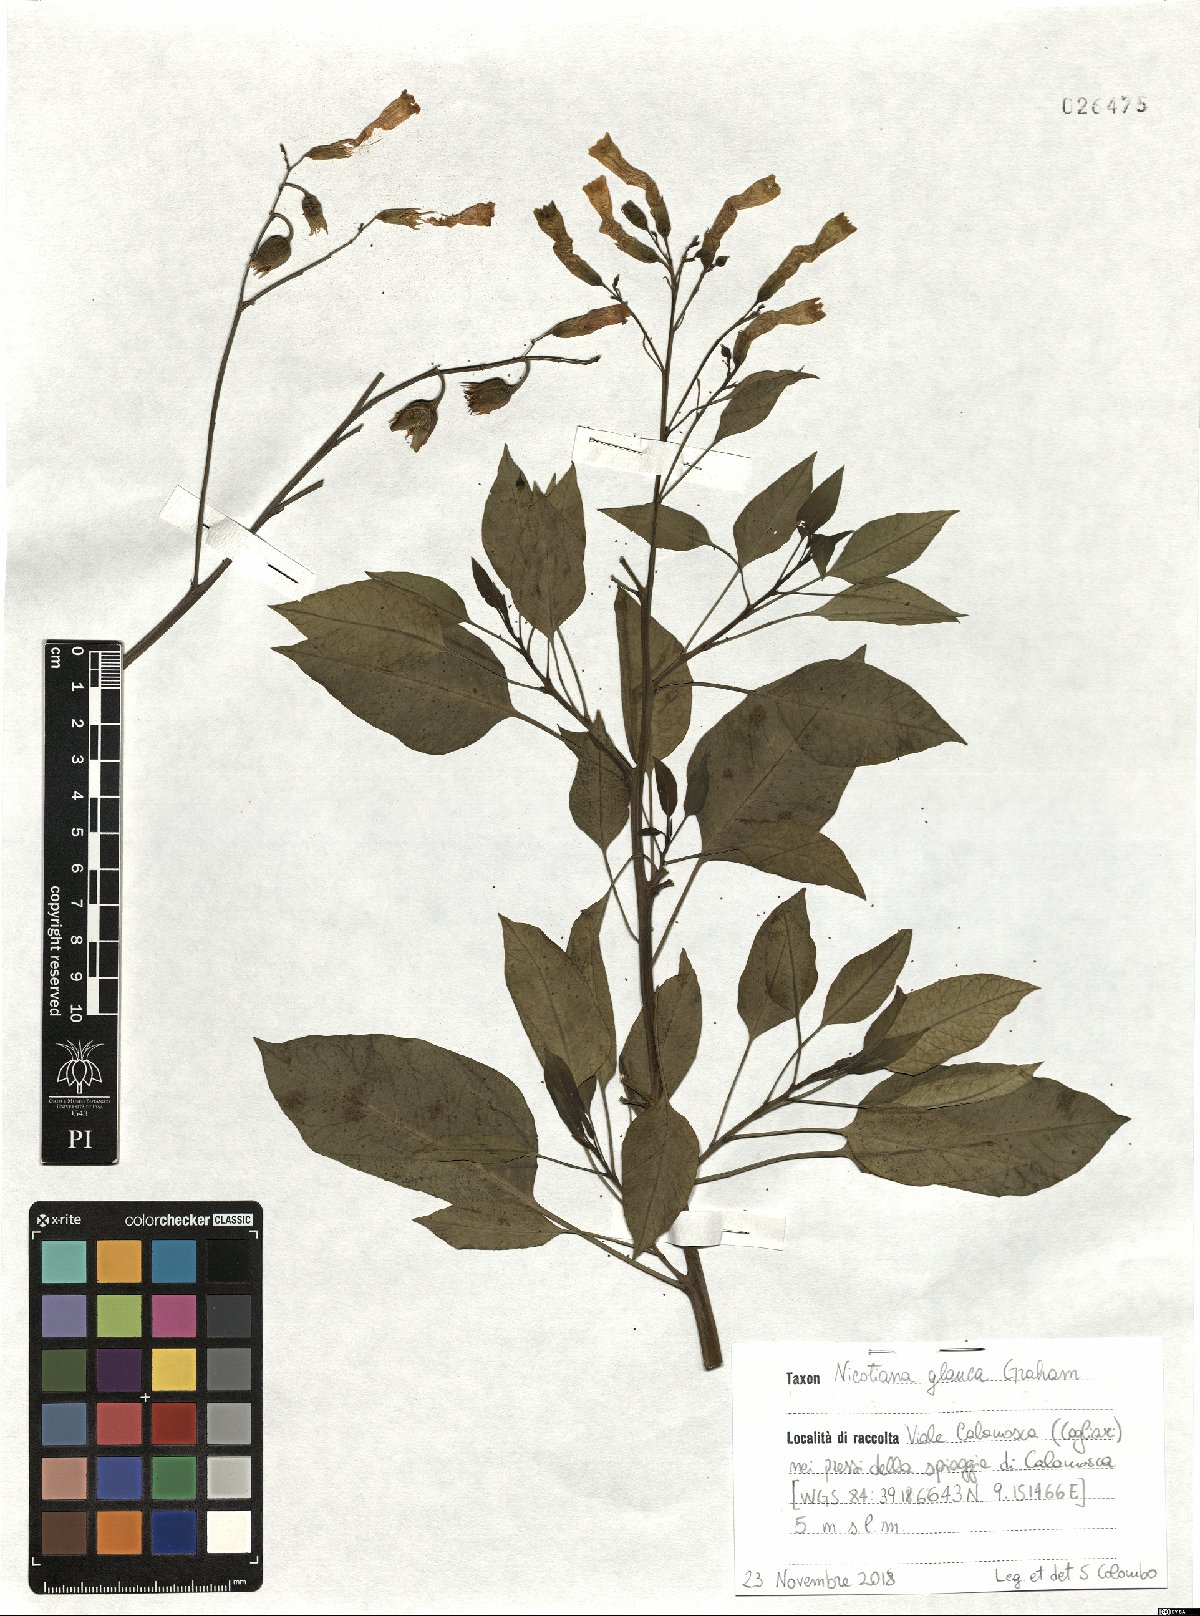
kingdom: Plantae
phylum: Tracheophyta
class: Magnoliopsida
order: Solanales
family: Solanaceae
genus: Nicotiana
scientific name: Nicotiana glauca
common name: Tree tobacco
